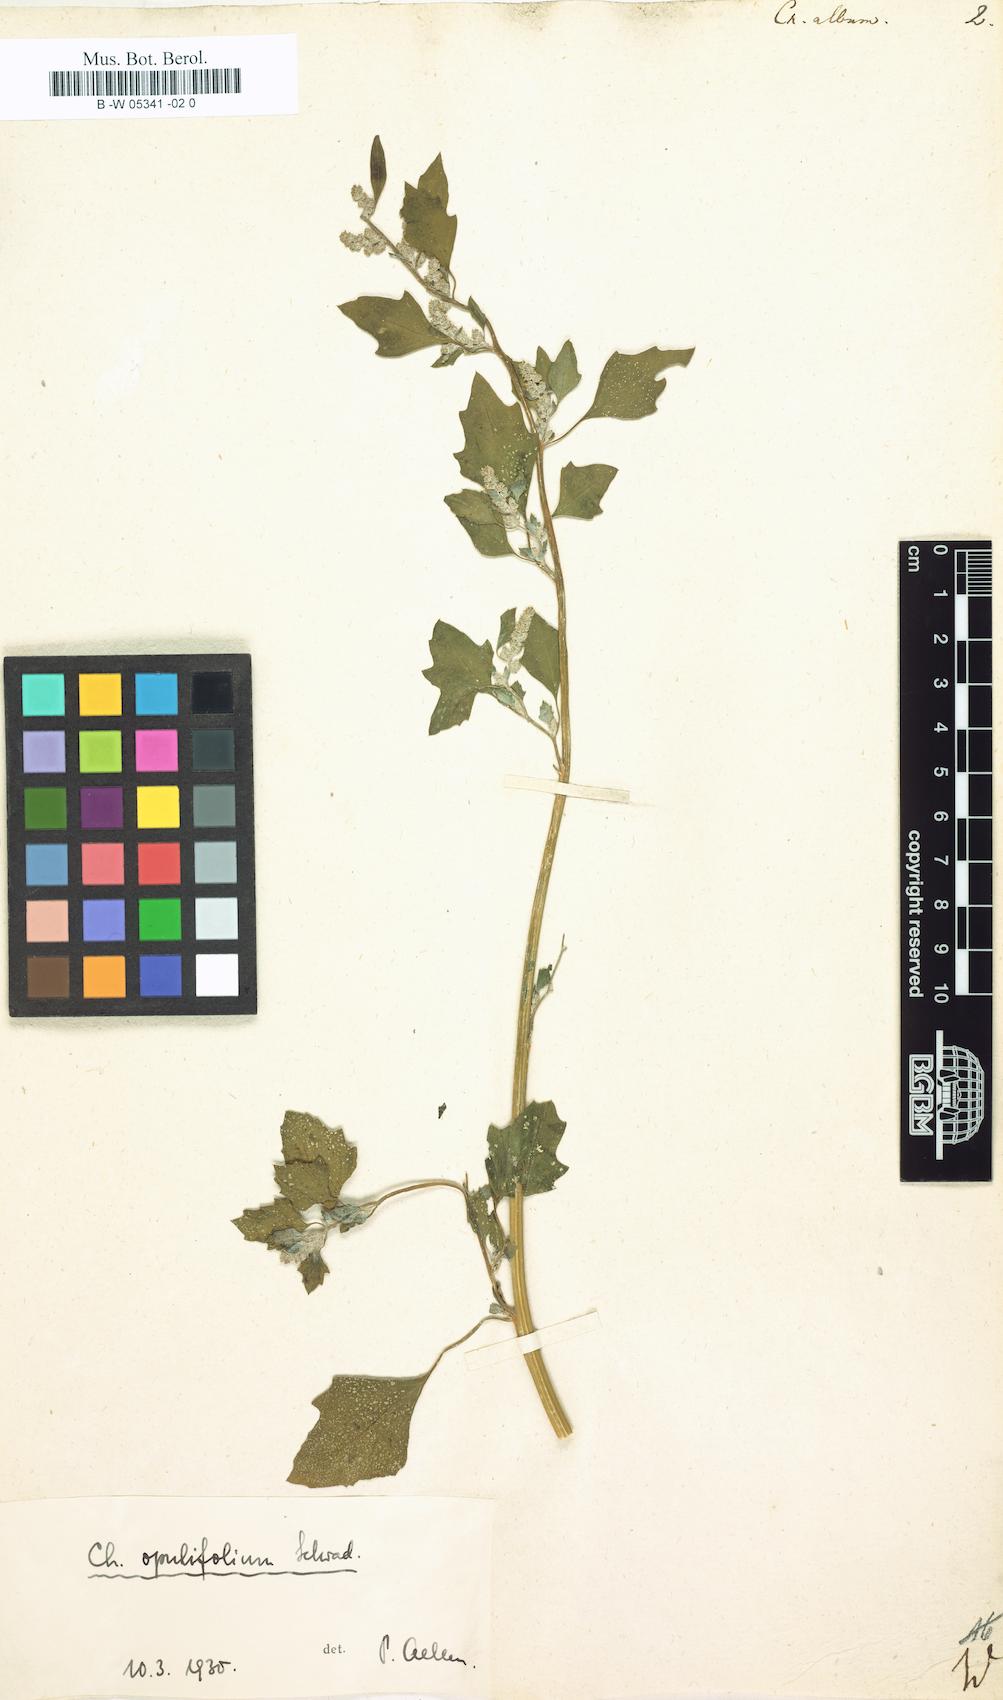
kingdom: Plantae
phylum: Tracheophyta
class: Magnoliopsida
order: Caryophyllales
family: Amaranthaceae
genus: Chenopodium
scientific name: Chenopodium album
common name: Fat-hen
